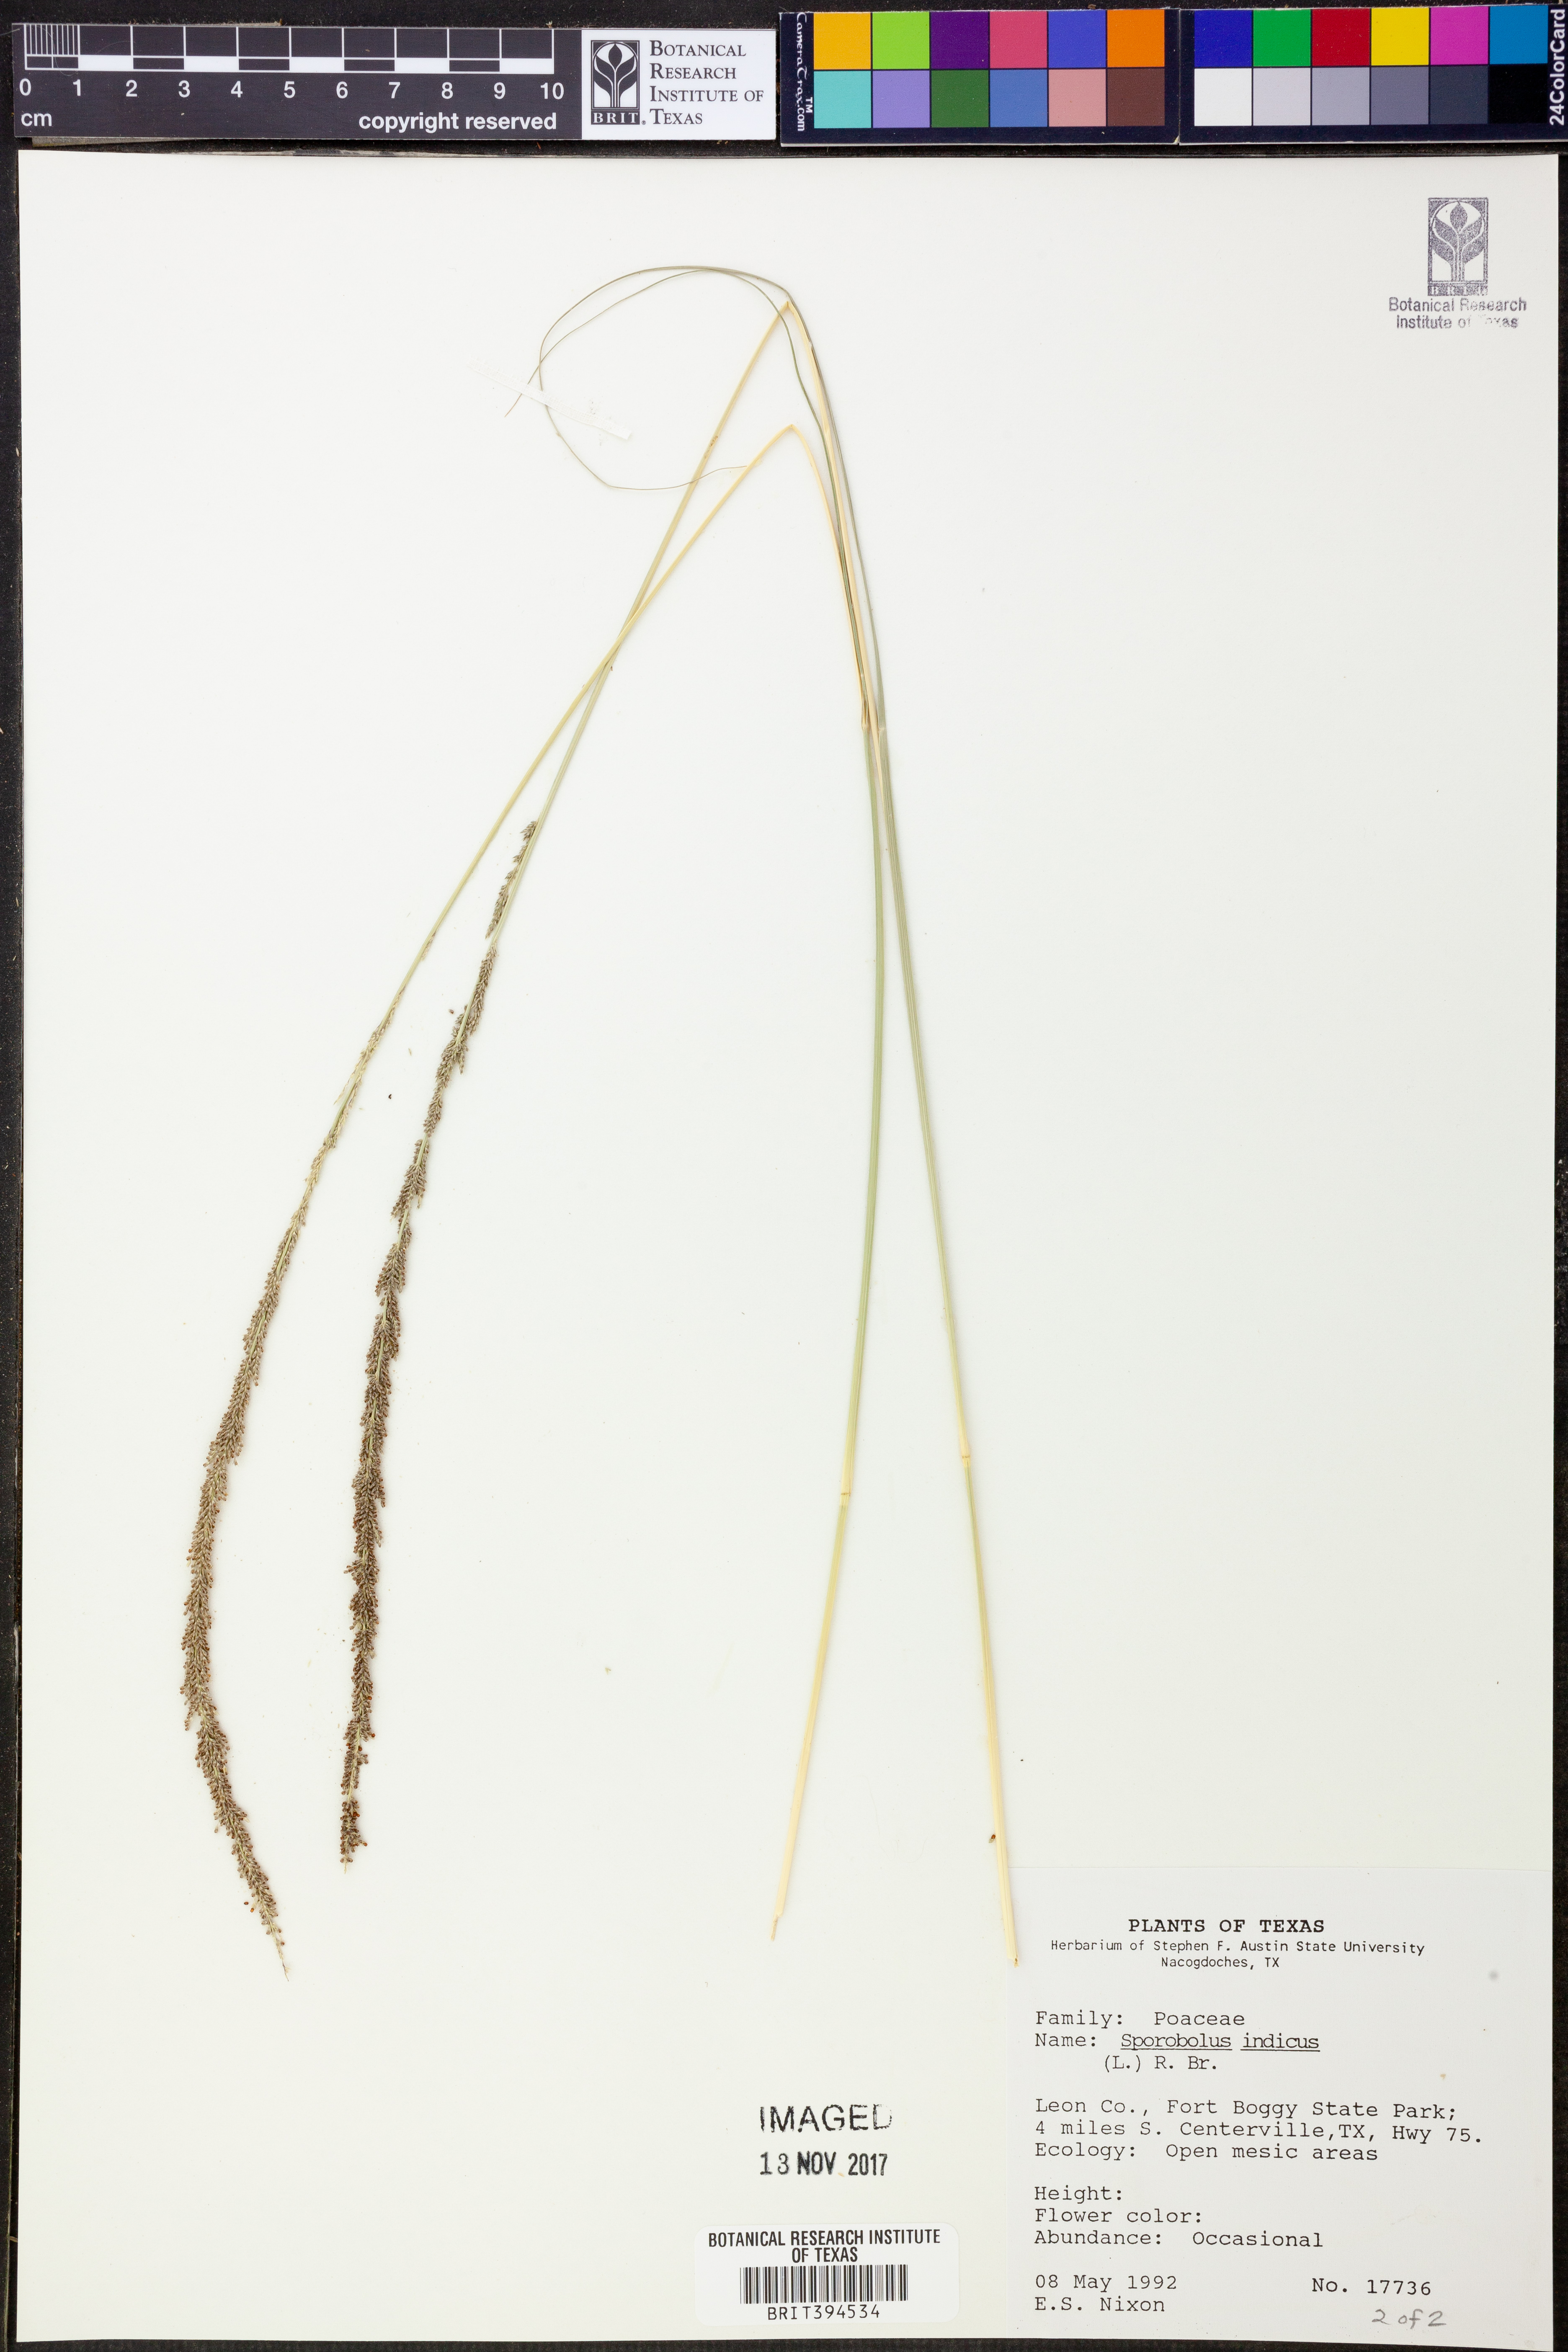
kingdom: Plantae
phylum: Tracheophyta
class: Liliopsida
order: Poales
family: Poaceae
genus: Sporobolus
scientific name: Sporobolus indicus
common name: Smut grass
